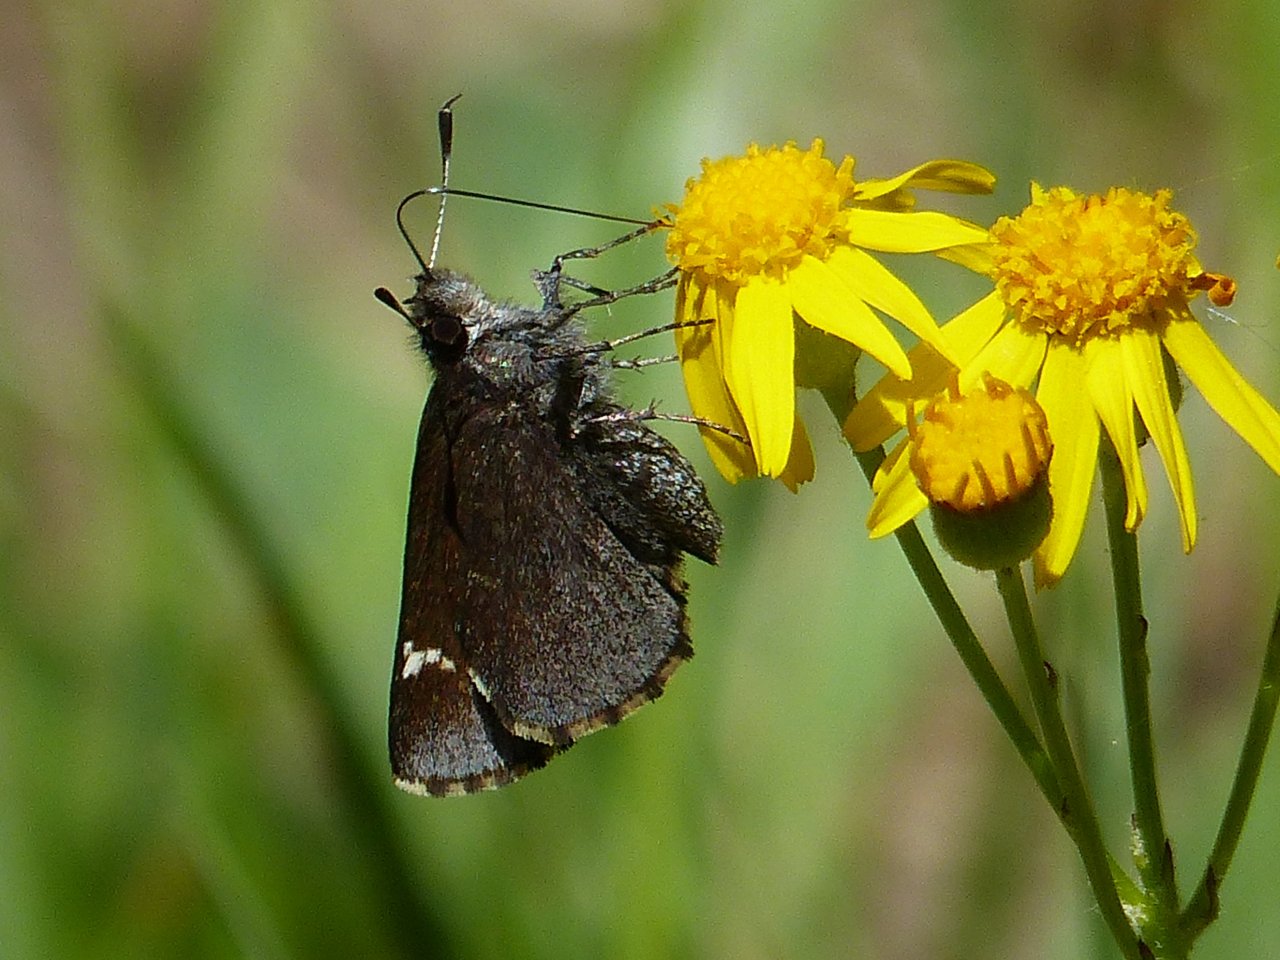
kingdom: Animalia
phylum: Arthropoda
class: Insecta
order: Lepidoptera
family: Hesperiidae
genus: Mastor
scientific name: Mastor vialis
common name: Common Roadside-Skipper
